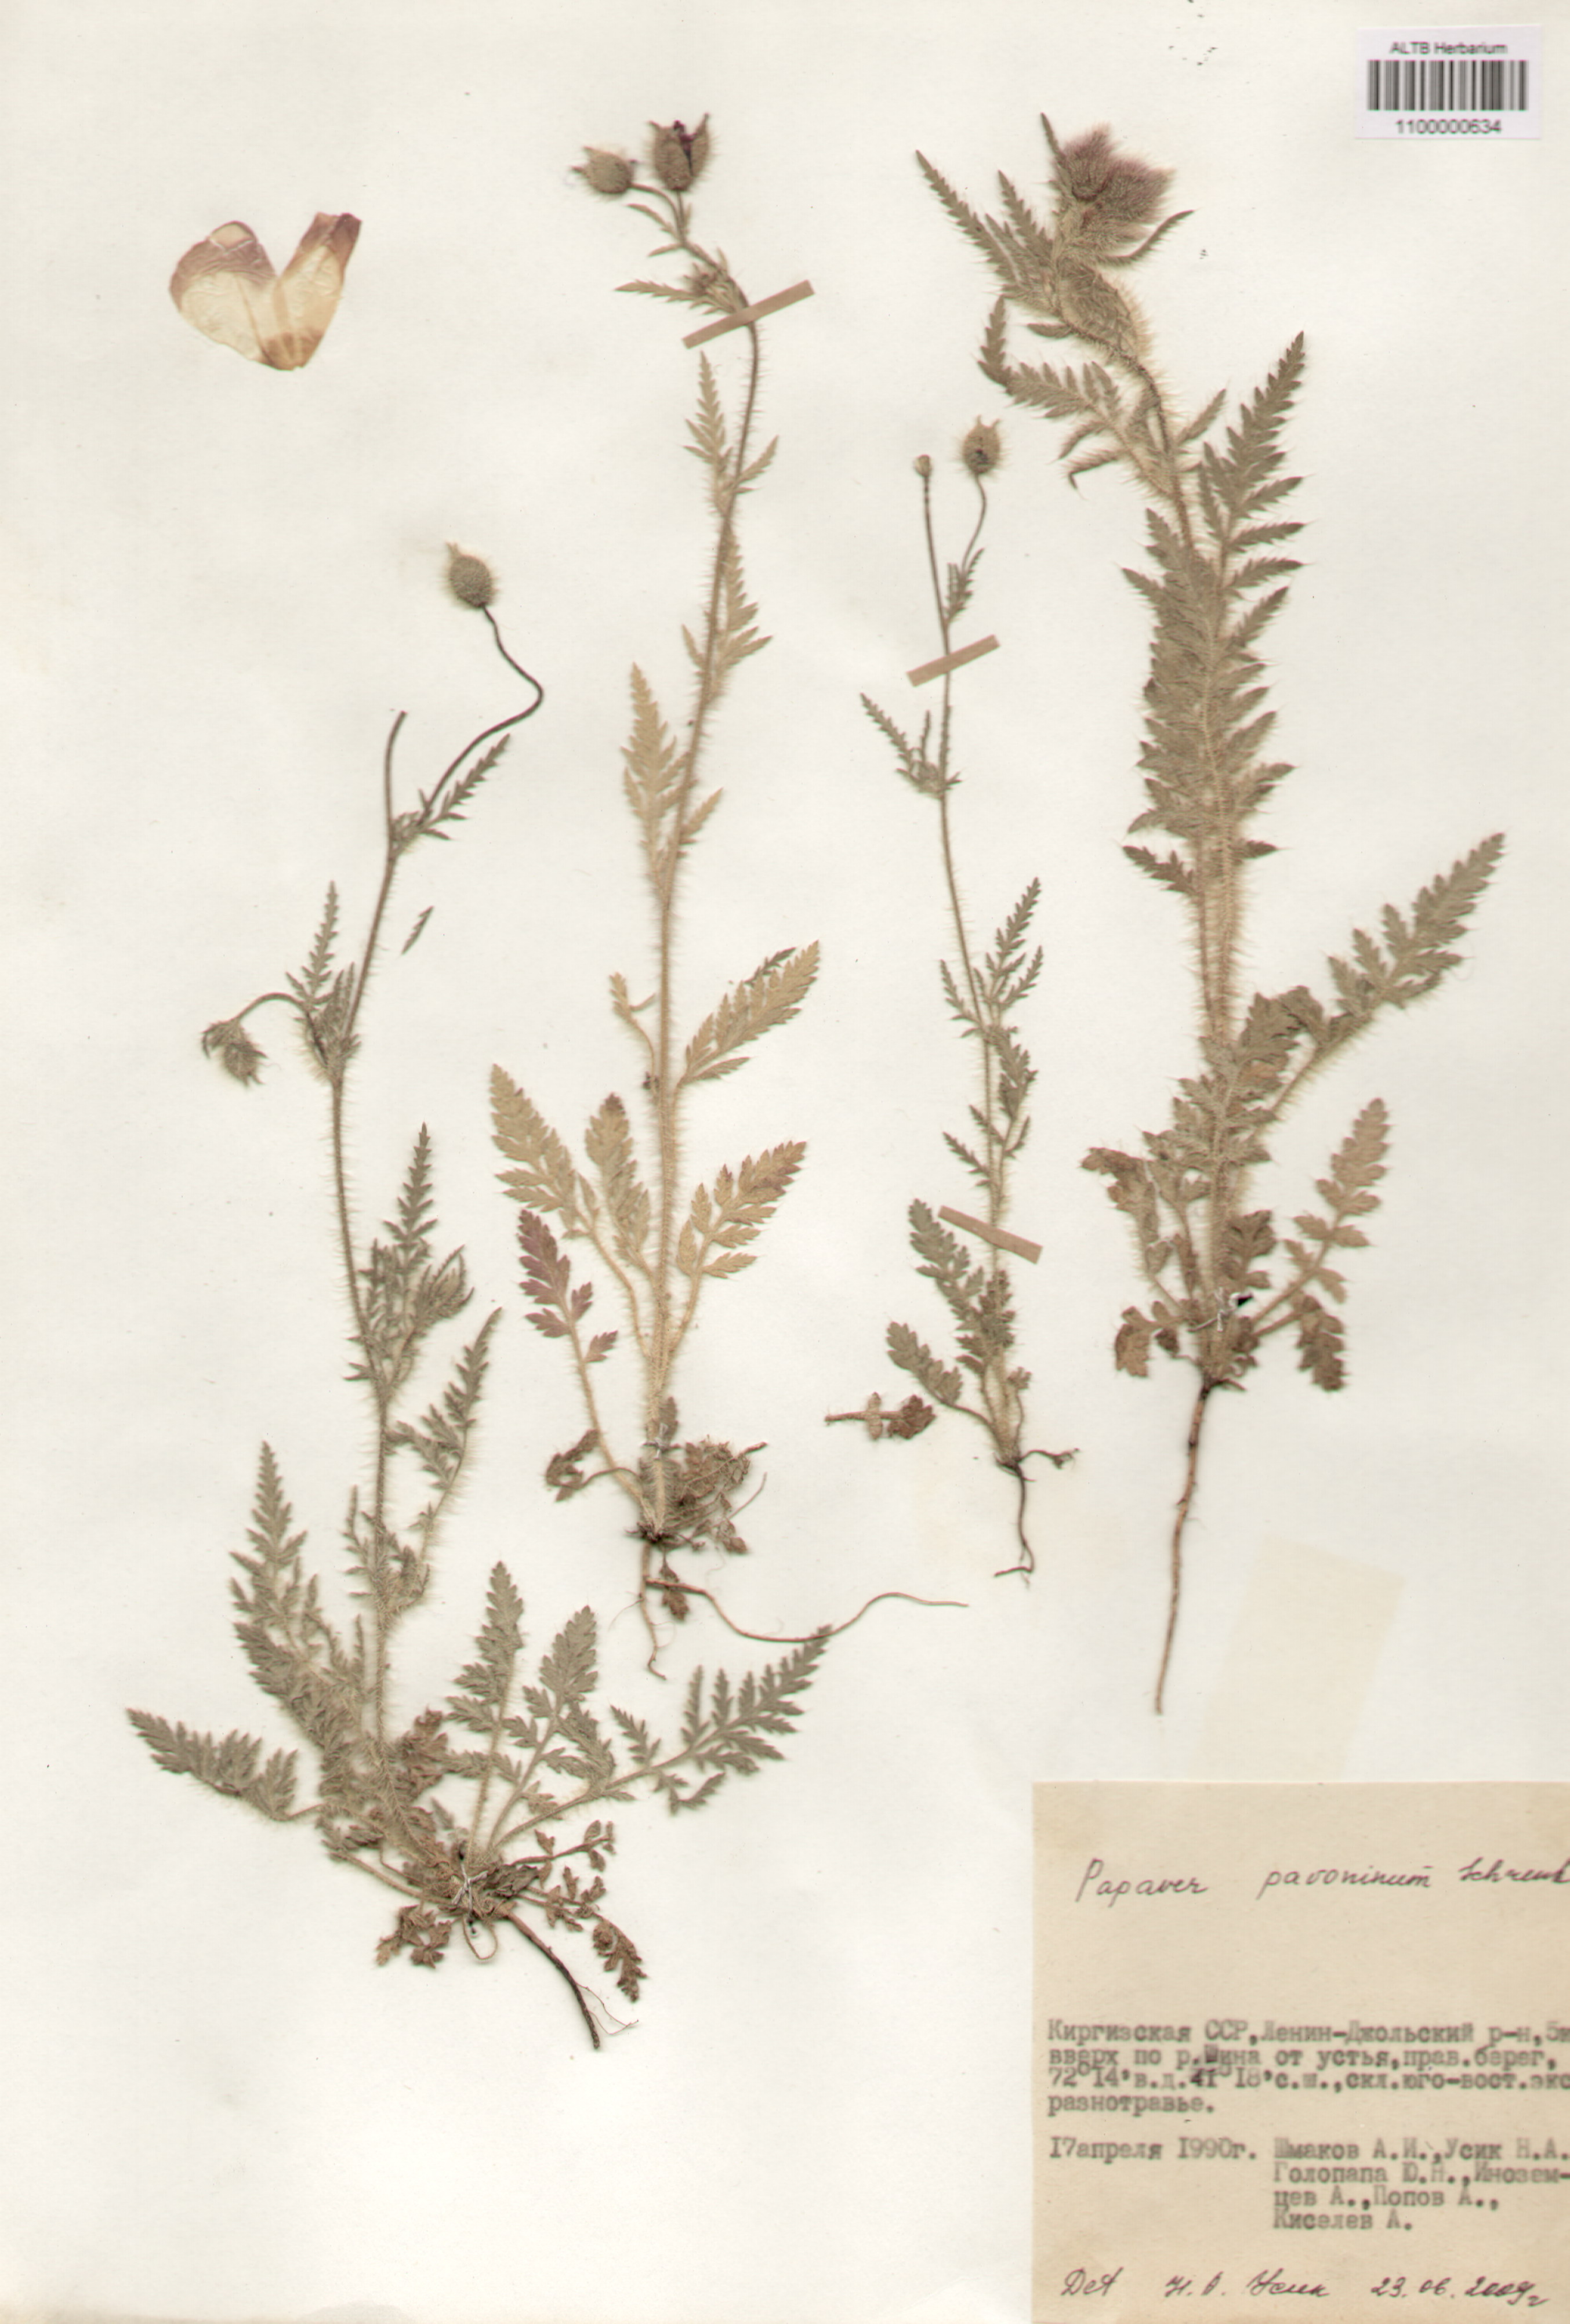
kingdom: Plantae
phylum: Tracheophyta
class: Magnoliopsida
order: Ranunculales
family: Papaveraceae
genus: Papaver
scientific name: Papaver pavoninum
